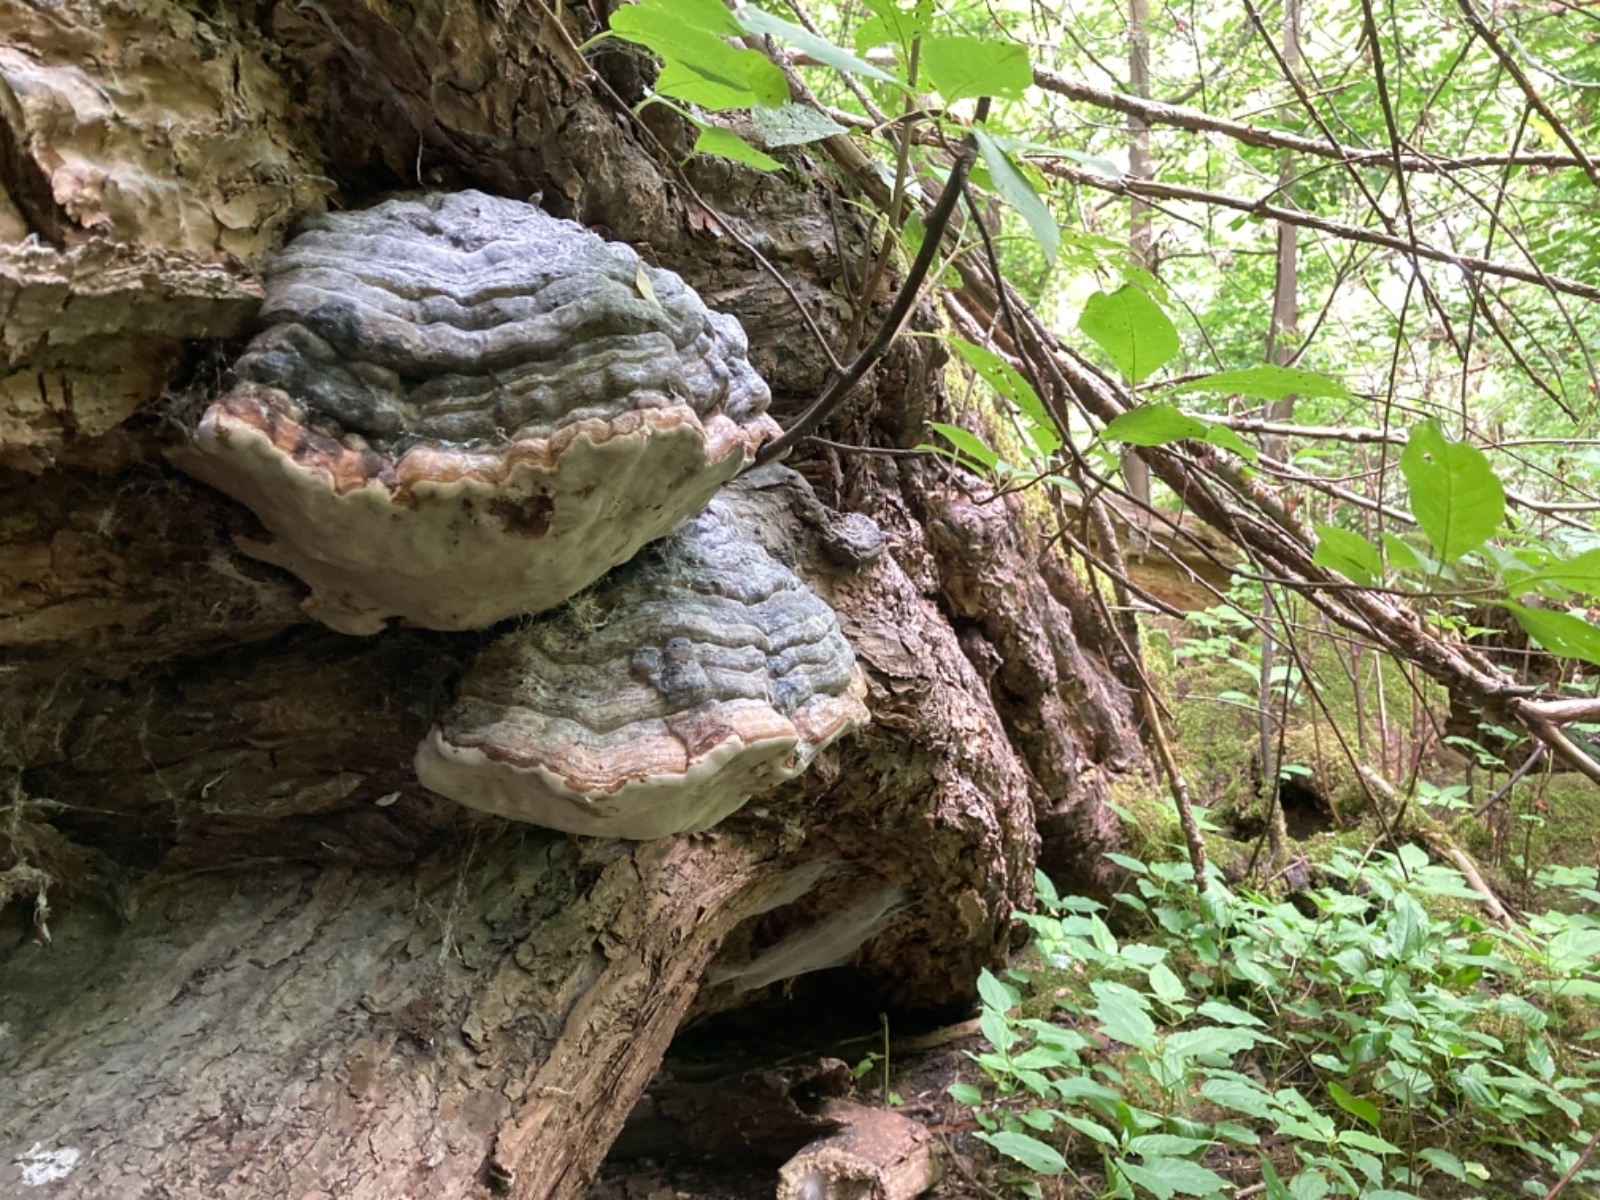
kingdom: Fungi
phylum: Basidiomycota
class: Agaricomycetes
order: Hymenochaetales
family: Hymenochaetaceae
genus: Phellinus
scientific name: Phellinus igniarius
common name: almindelig ildporesvamp
